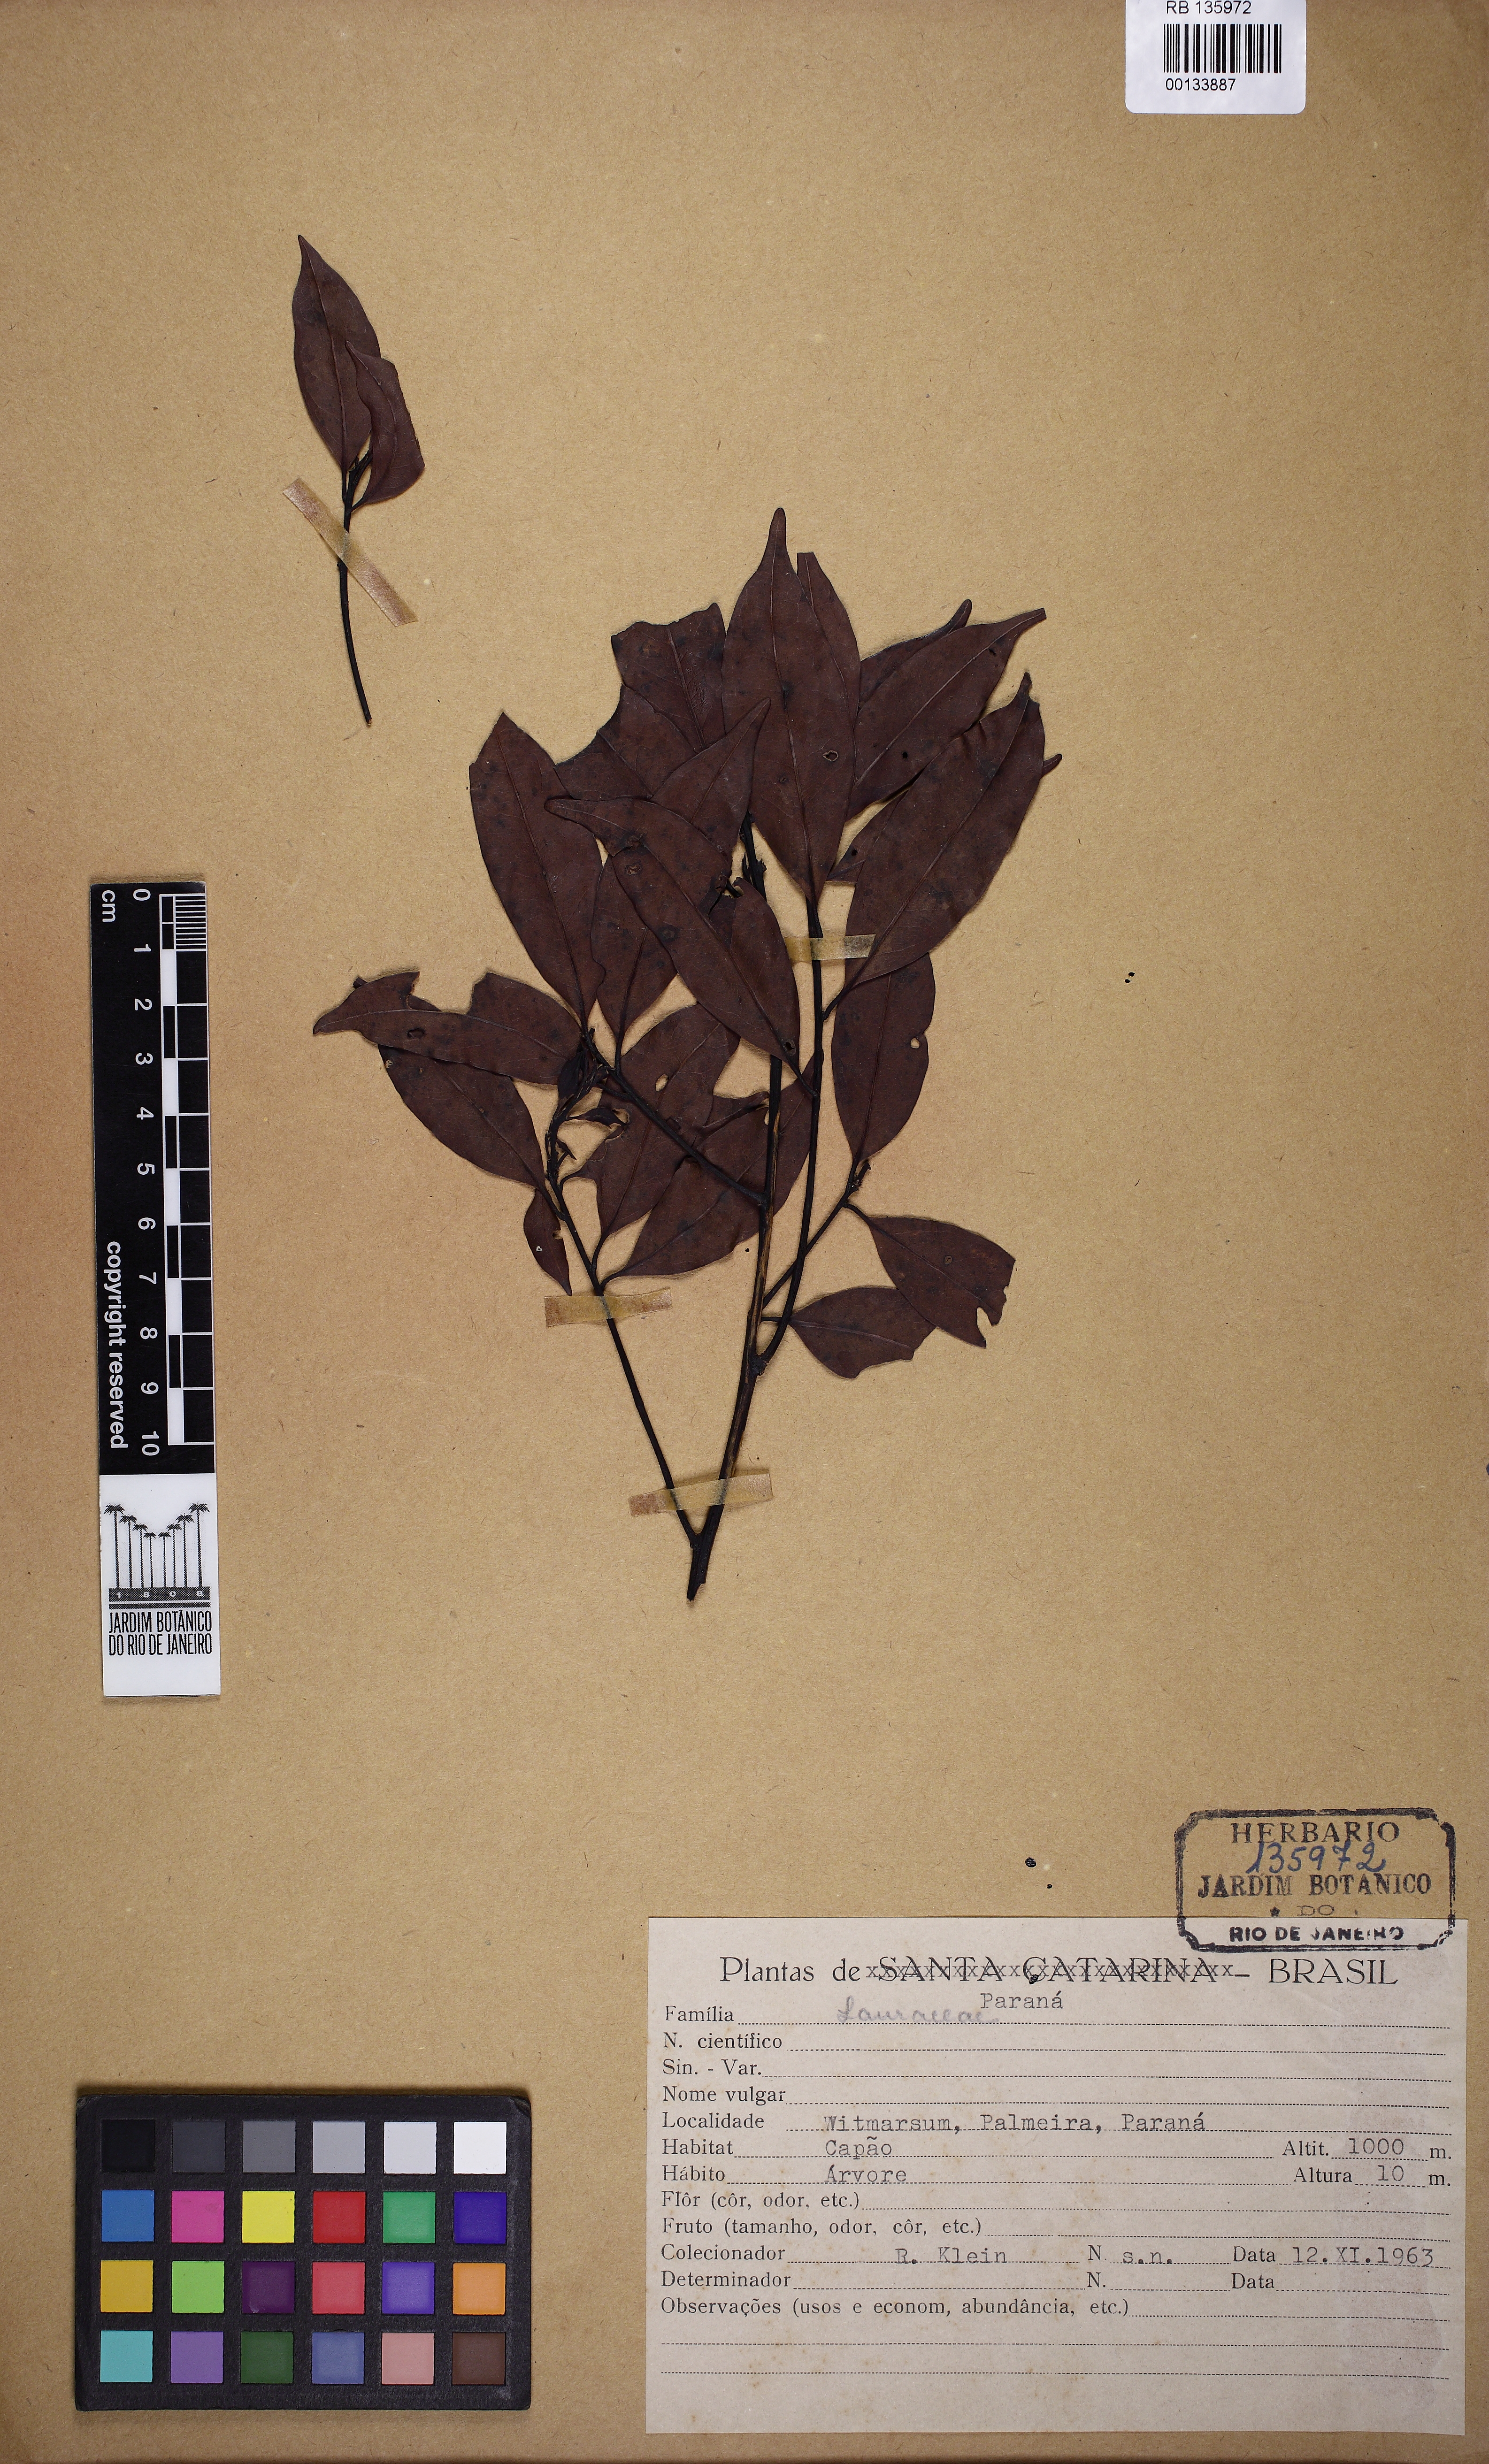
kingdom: Plantae
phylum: Tracheophyta
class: Magnoliopsida
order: Laurales
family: Lauraceae
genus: Ocotea
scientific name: Ocotea
